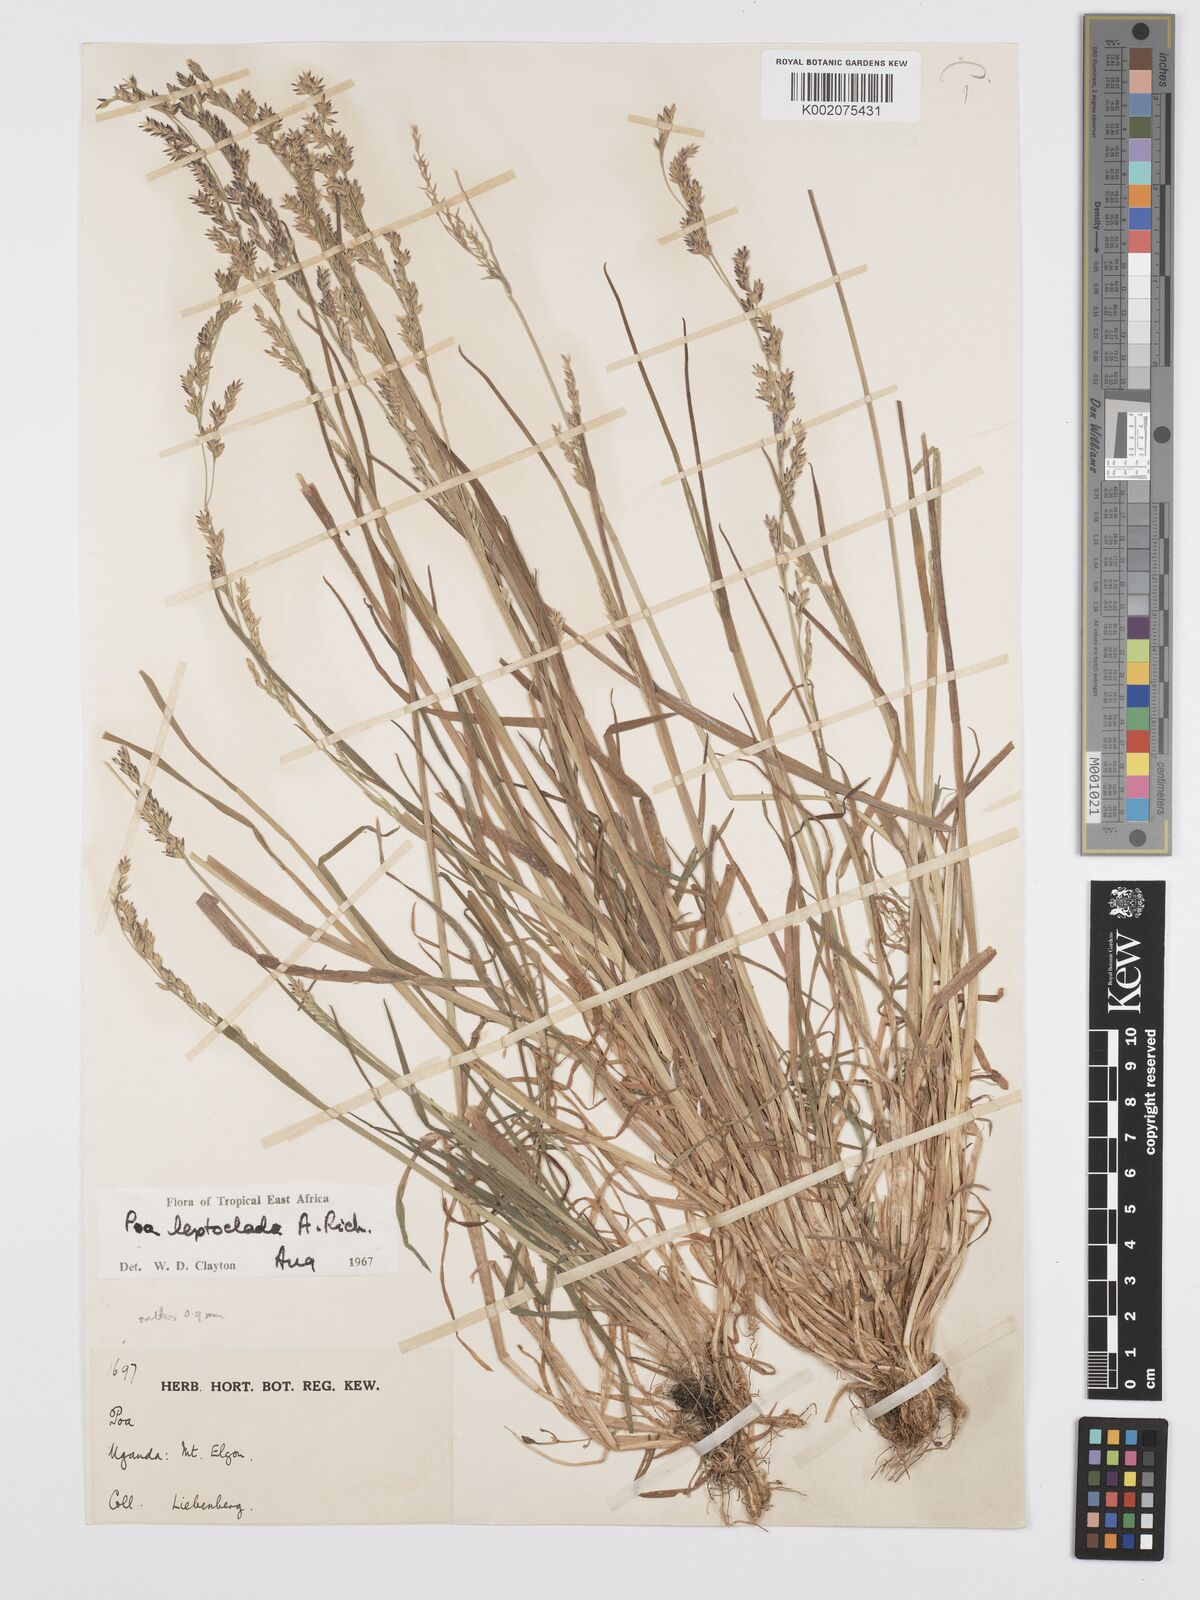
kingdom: Plantae
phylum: Tracheophyta
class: Liliopsida
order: Poales
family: Poaceae
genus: Poa
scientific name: Poa
